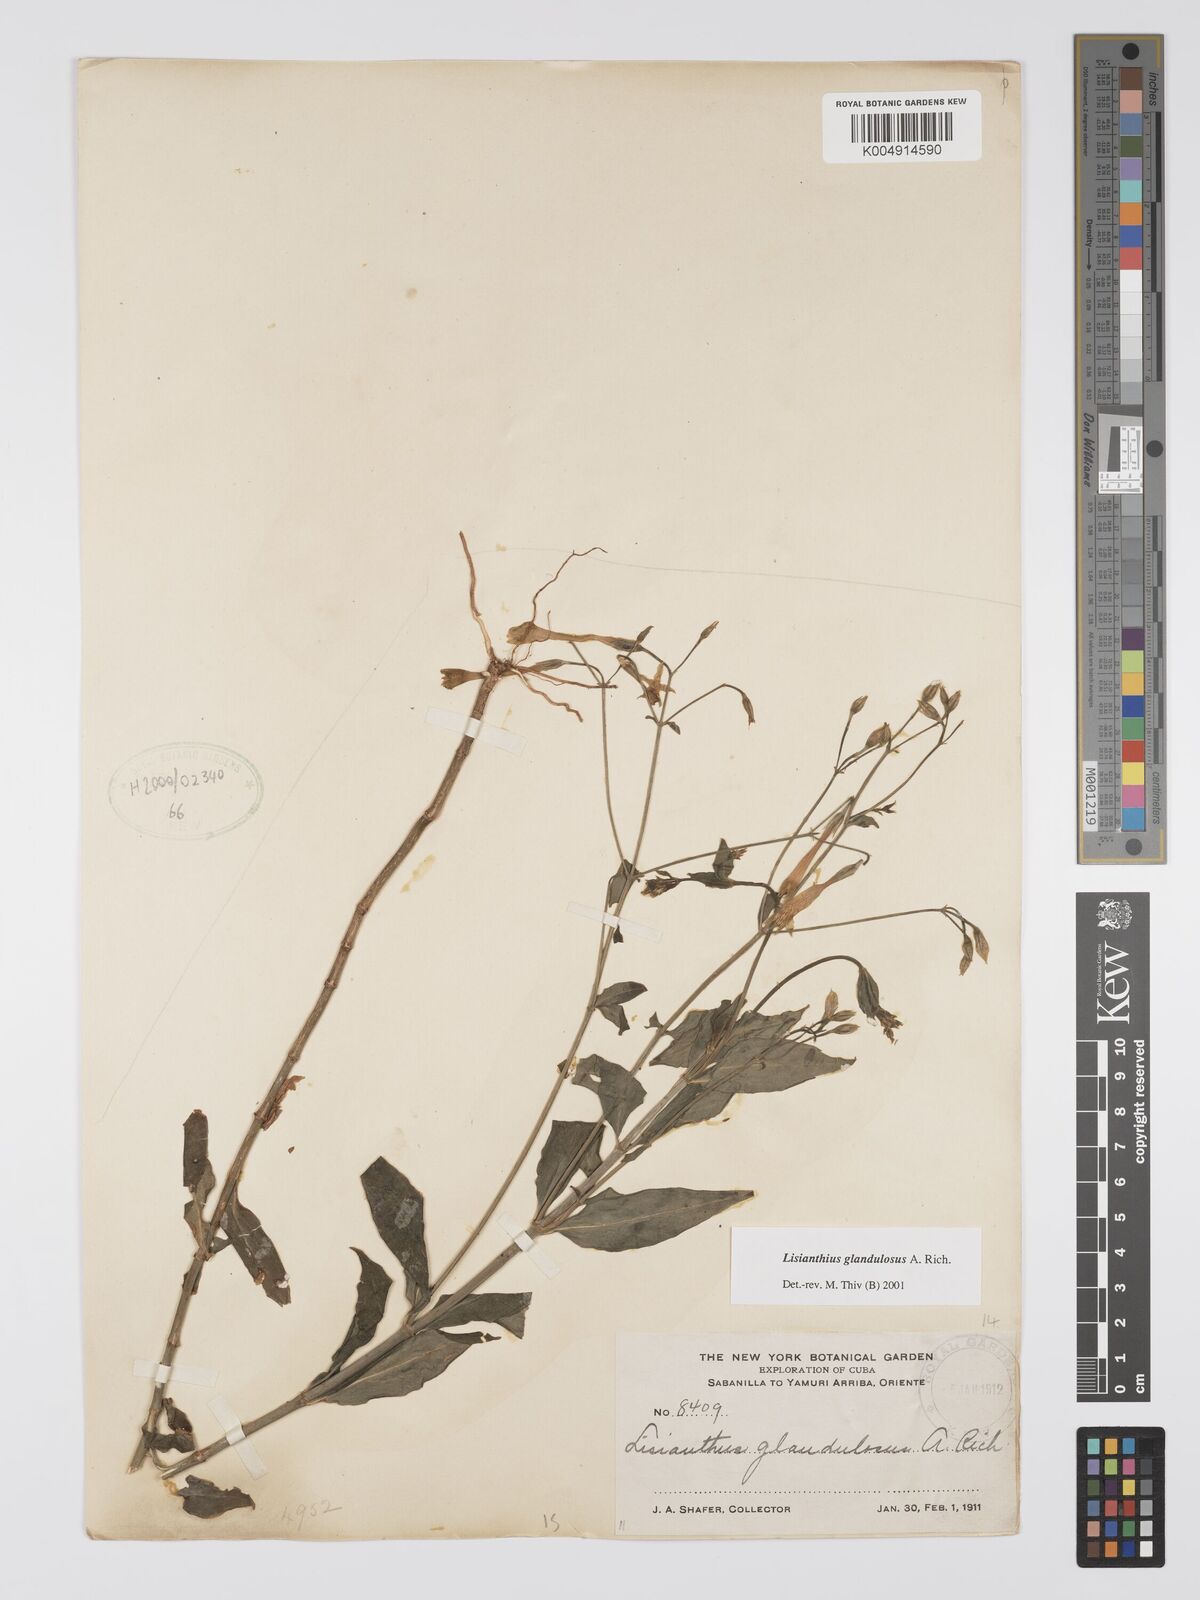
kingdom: Plantae
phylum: Tracheophyta
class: Magnoliopsida
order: Gentianales
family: Gentianaceae
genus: Lisianthus
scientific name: Lisianthus glandulosus
